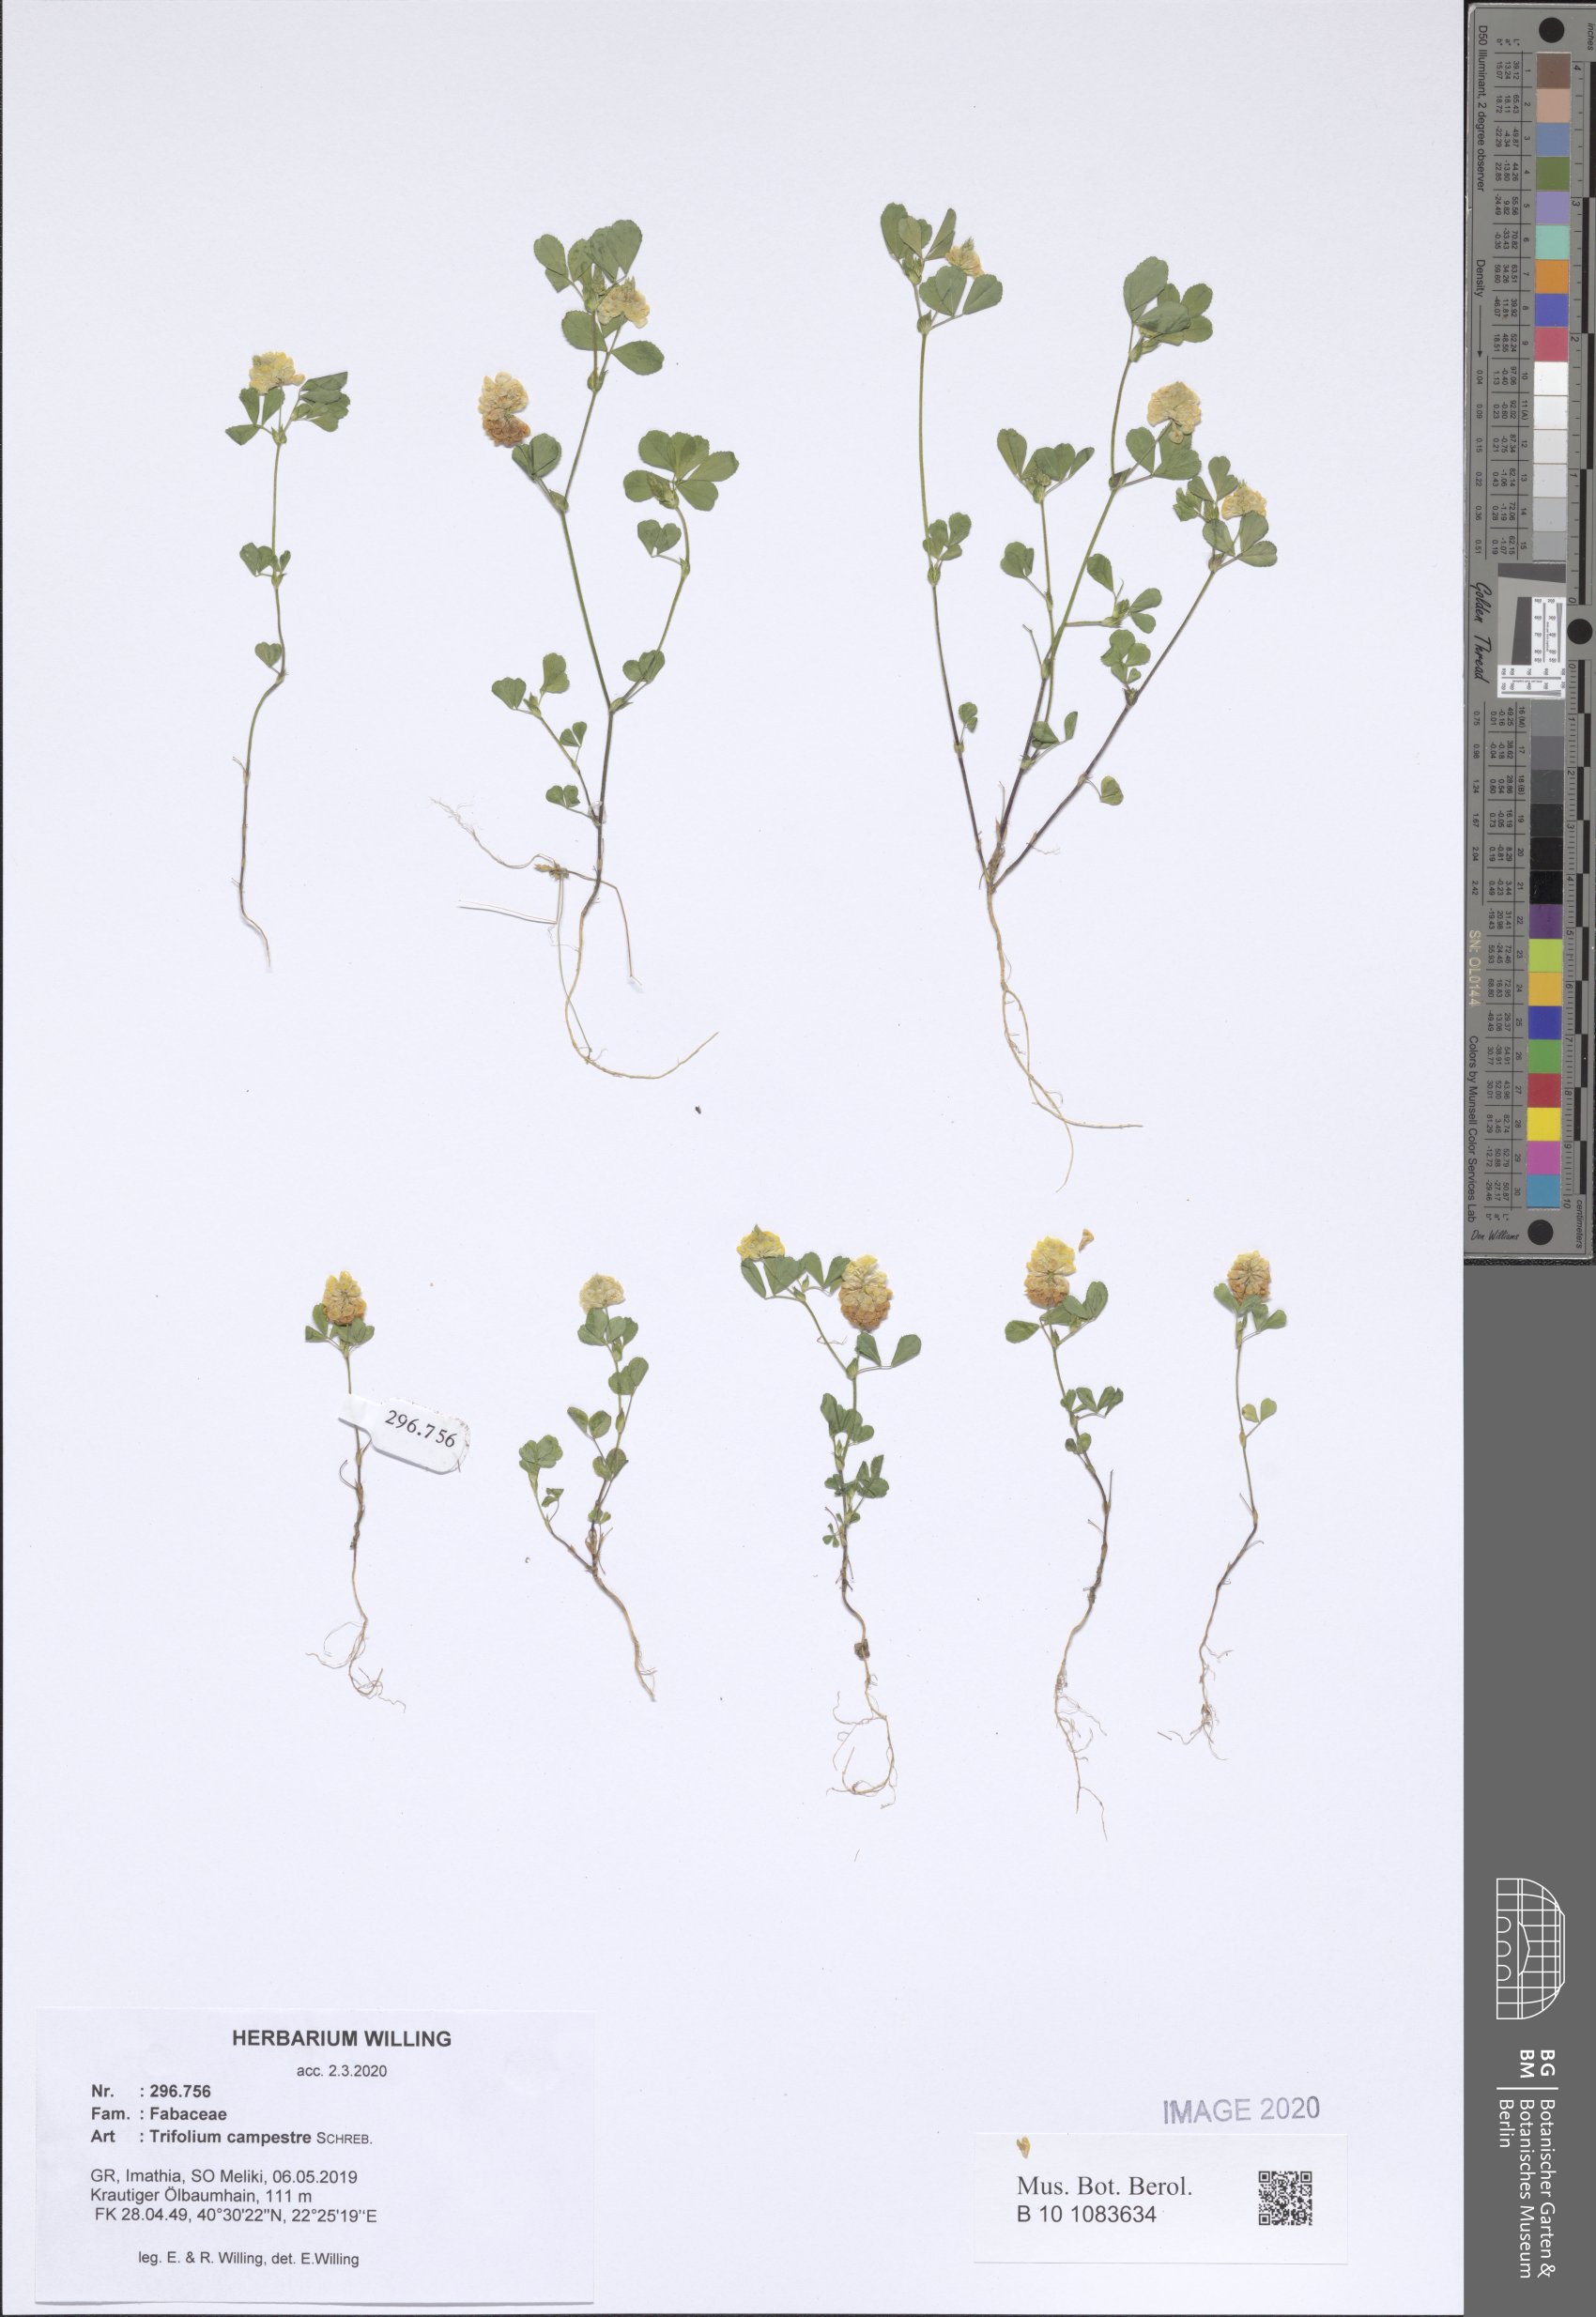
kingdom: Plantae
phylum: Tracheophyta
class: Magnoliopsida
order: Fabales
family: Fabaceae
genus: Trifolium
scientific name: Trifolium campestre
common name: Field clover
